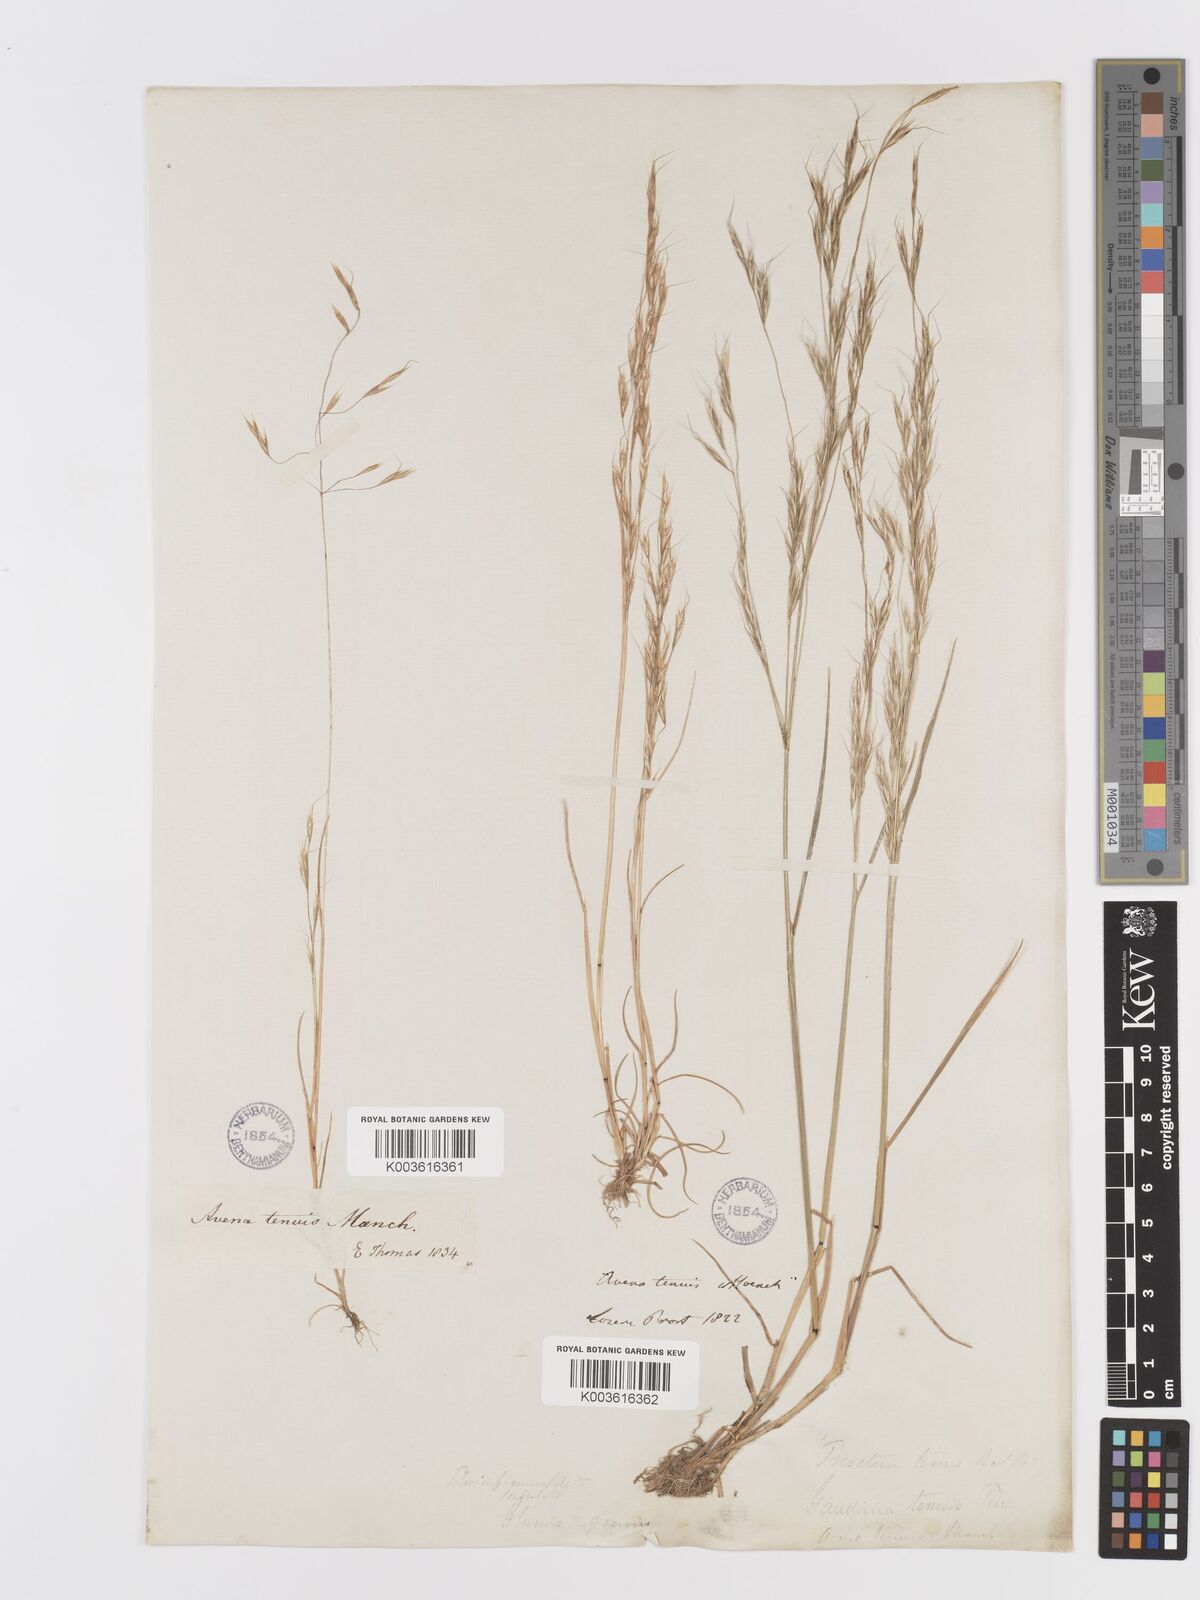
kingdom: Plantae
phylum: Tracheophyta
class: Liliopsida
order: Poales
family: Poaceae
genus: Ventenata
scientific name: Ventenata dubia
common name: North africa grass
